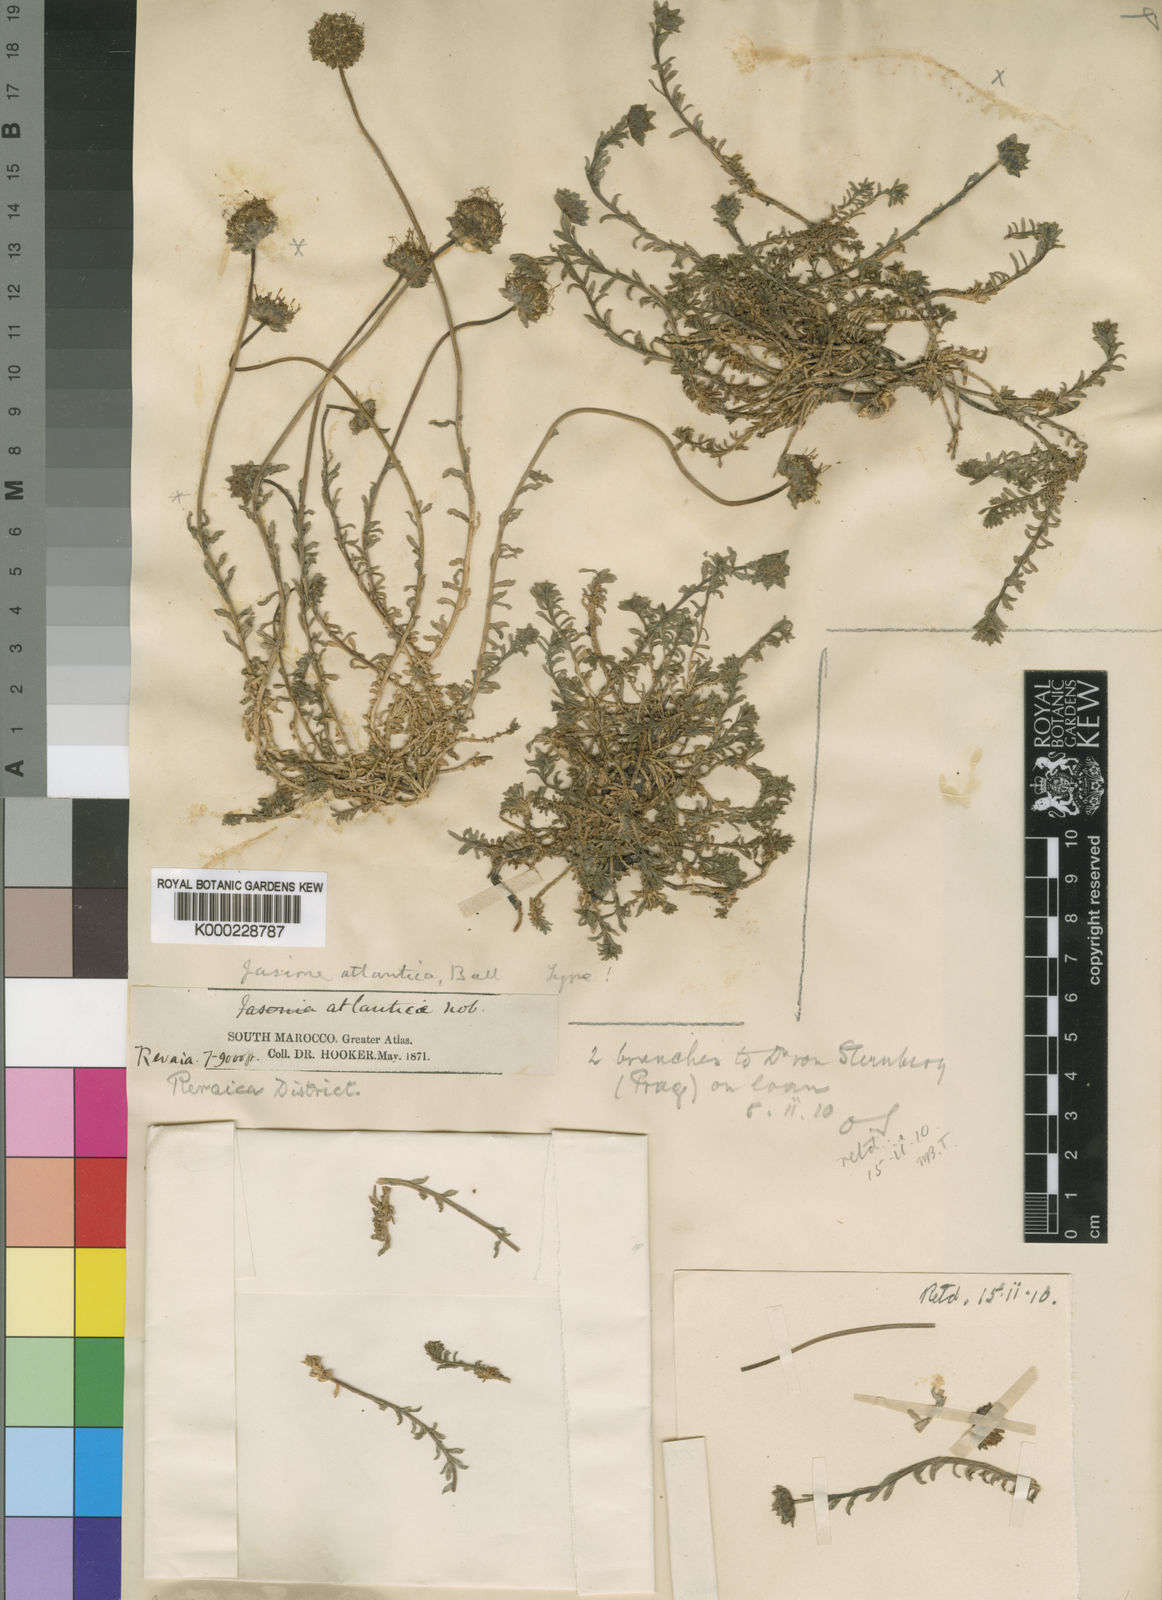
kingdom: Plantae
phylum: Tracheophyta
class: Magnoliopsida
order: Asterales
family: Campanulaceae
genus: Jasione
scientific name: Jasione crispa
